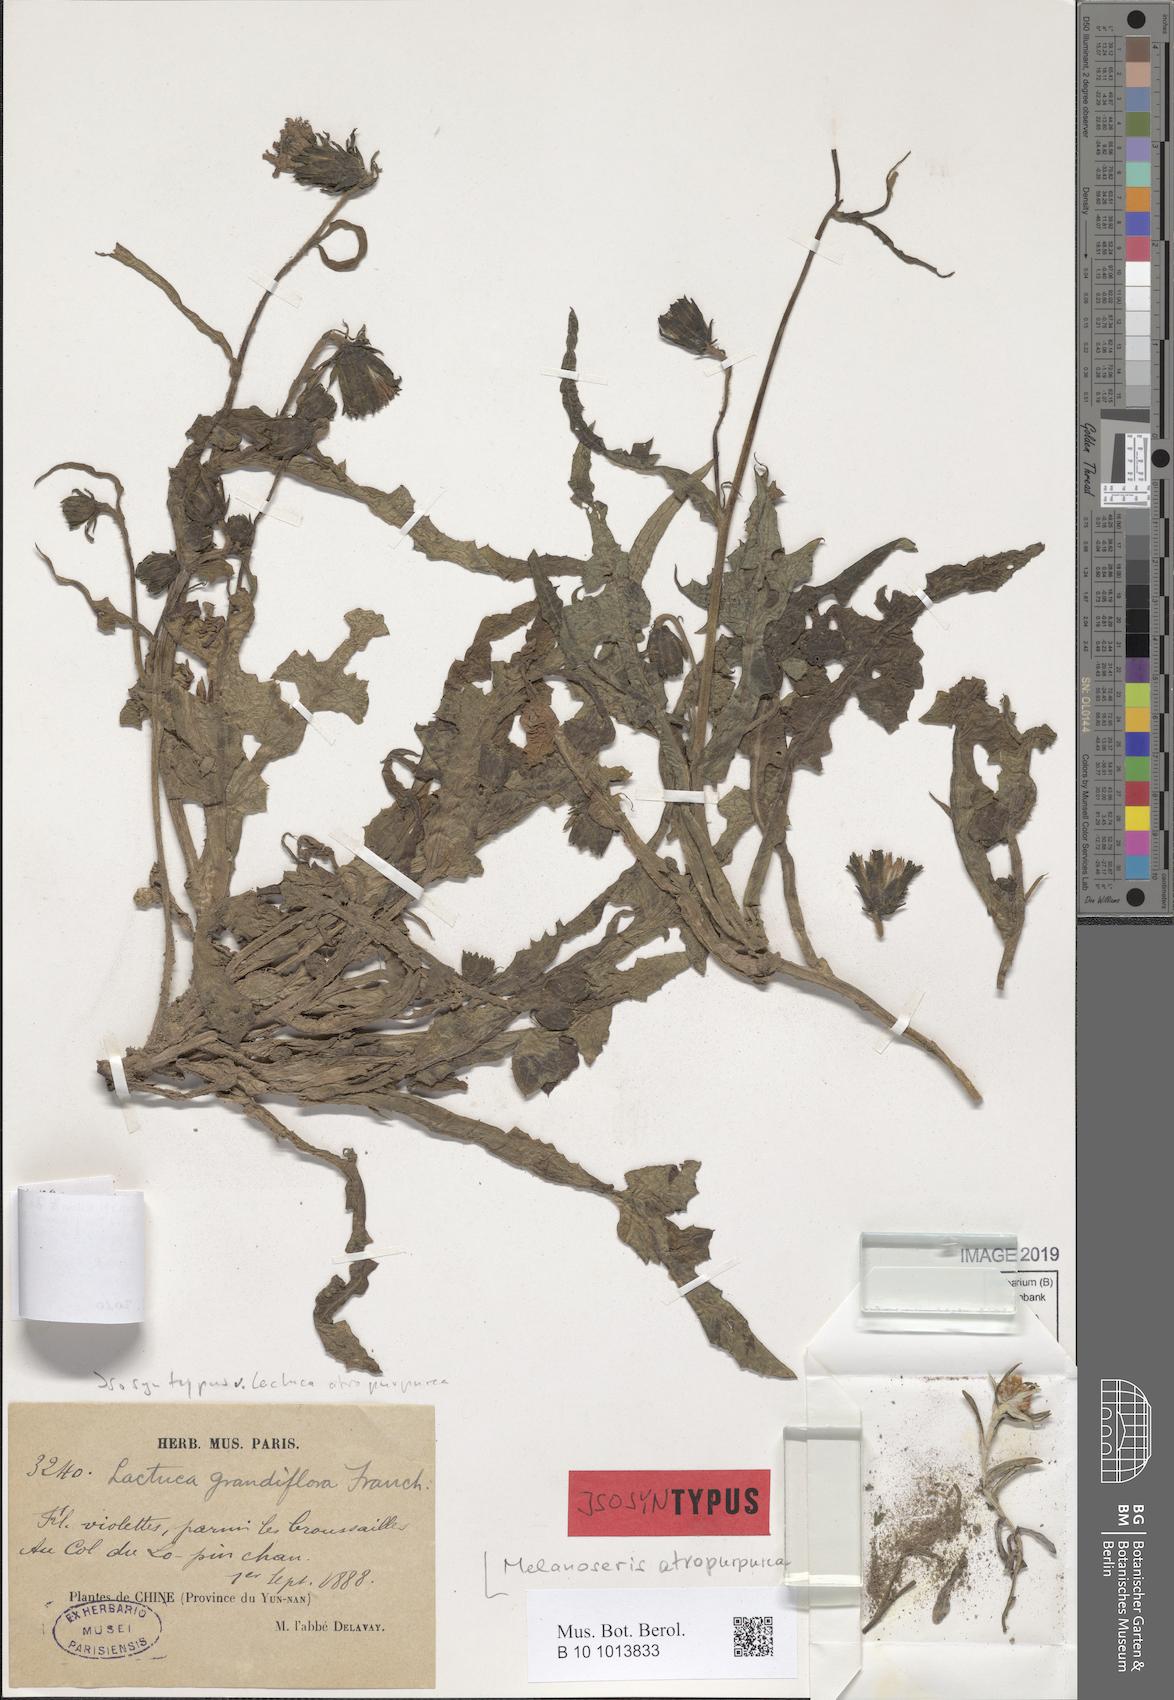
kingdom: Plantae
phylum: Tracheophyta
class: Magnoliopsida
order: Asterales
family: Asteraceae
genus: Melanoseris
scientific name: Melanoseris atropurpurea
